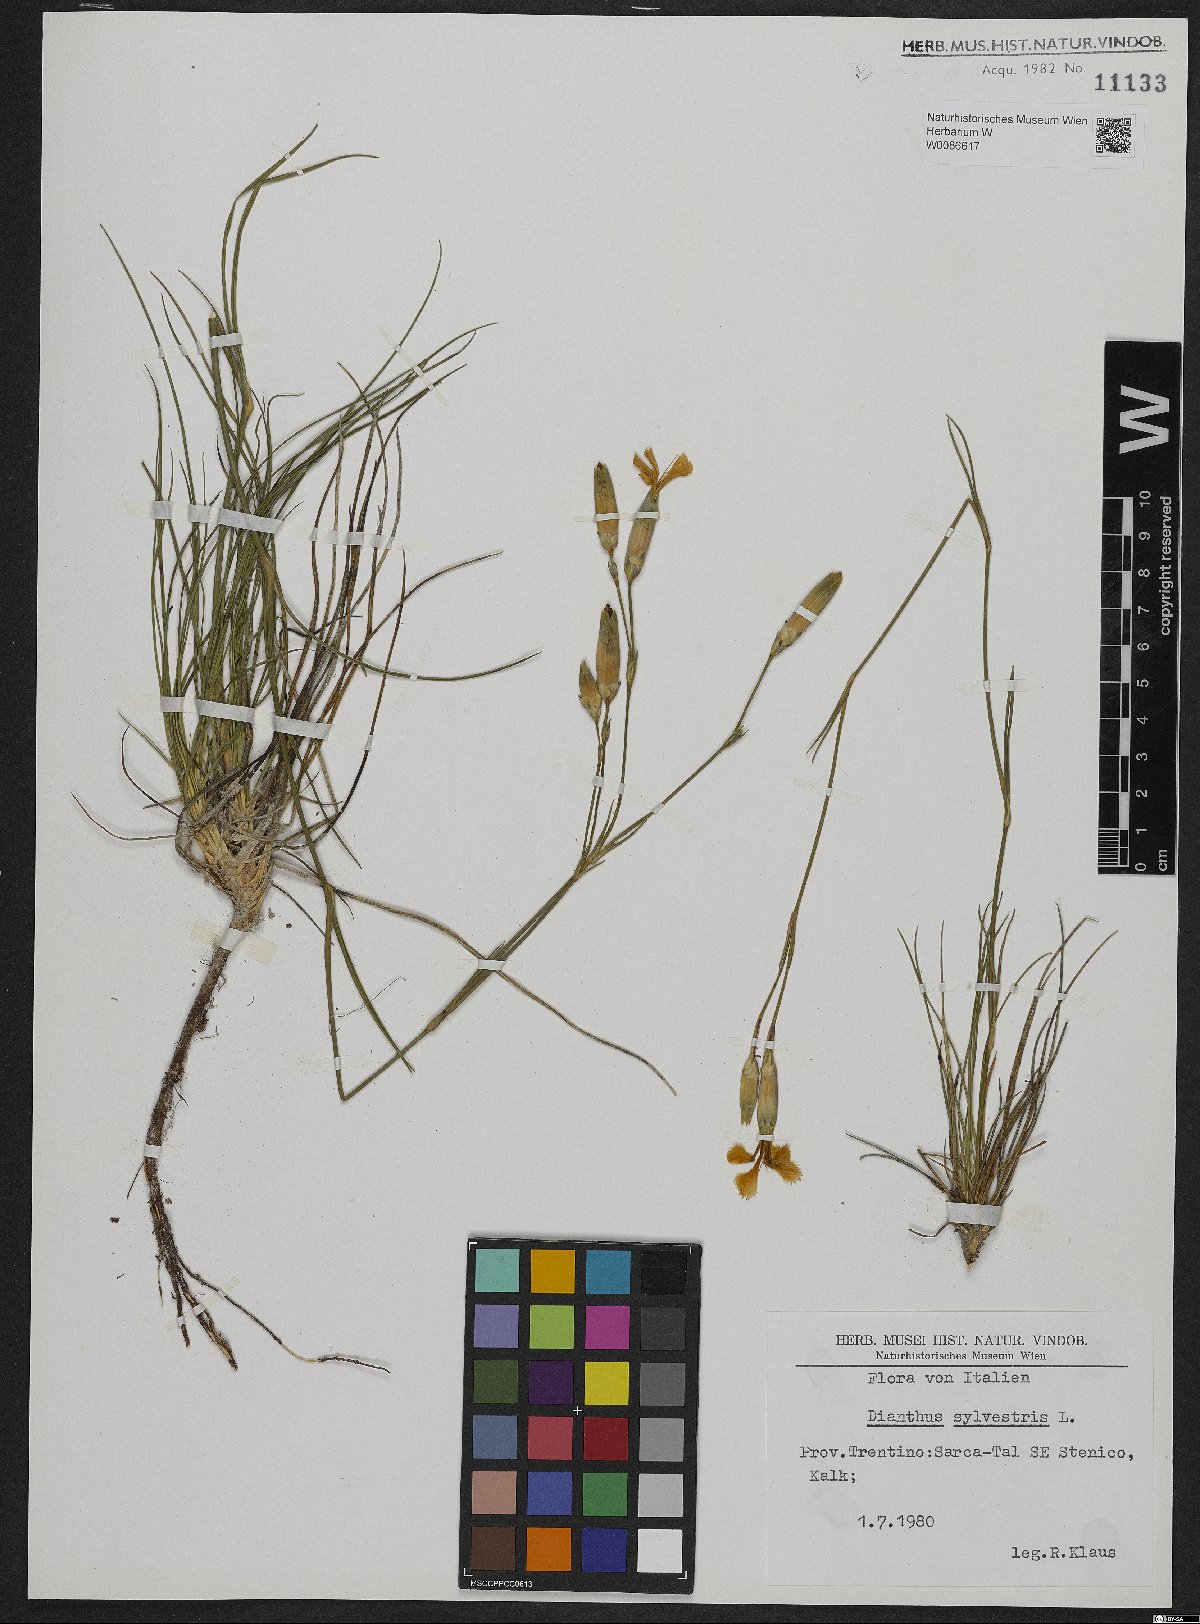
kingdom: Plantae
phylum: Tracheophyta
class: Magnoliopsida
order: Caryophyllales
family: Caryophyllaceae
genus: Dianthus
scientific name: Dianthus sylvestris
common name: Wood pink
